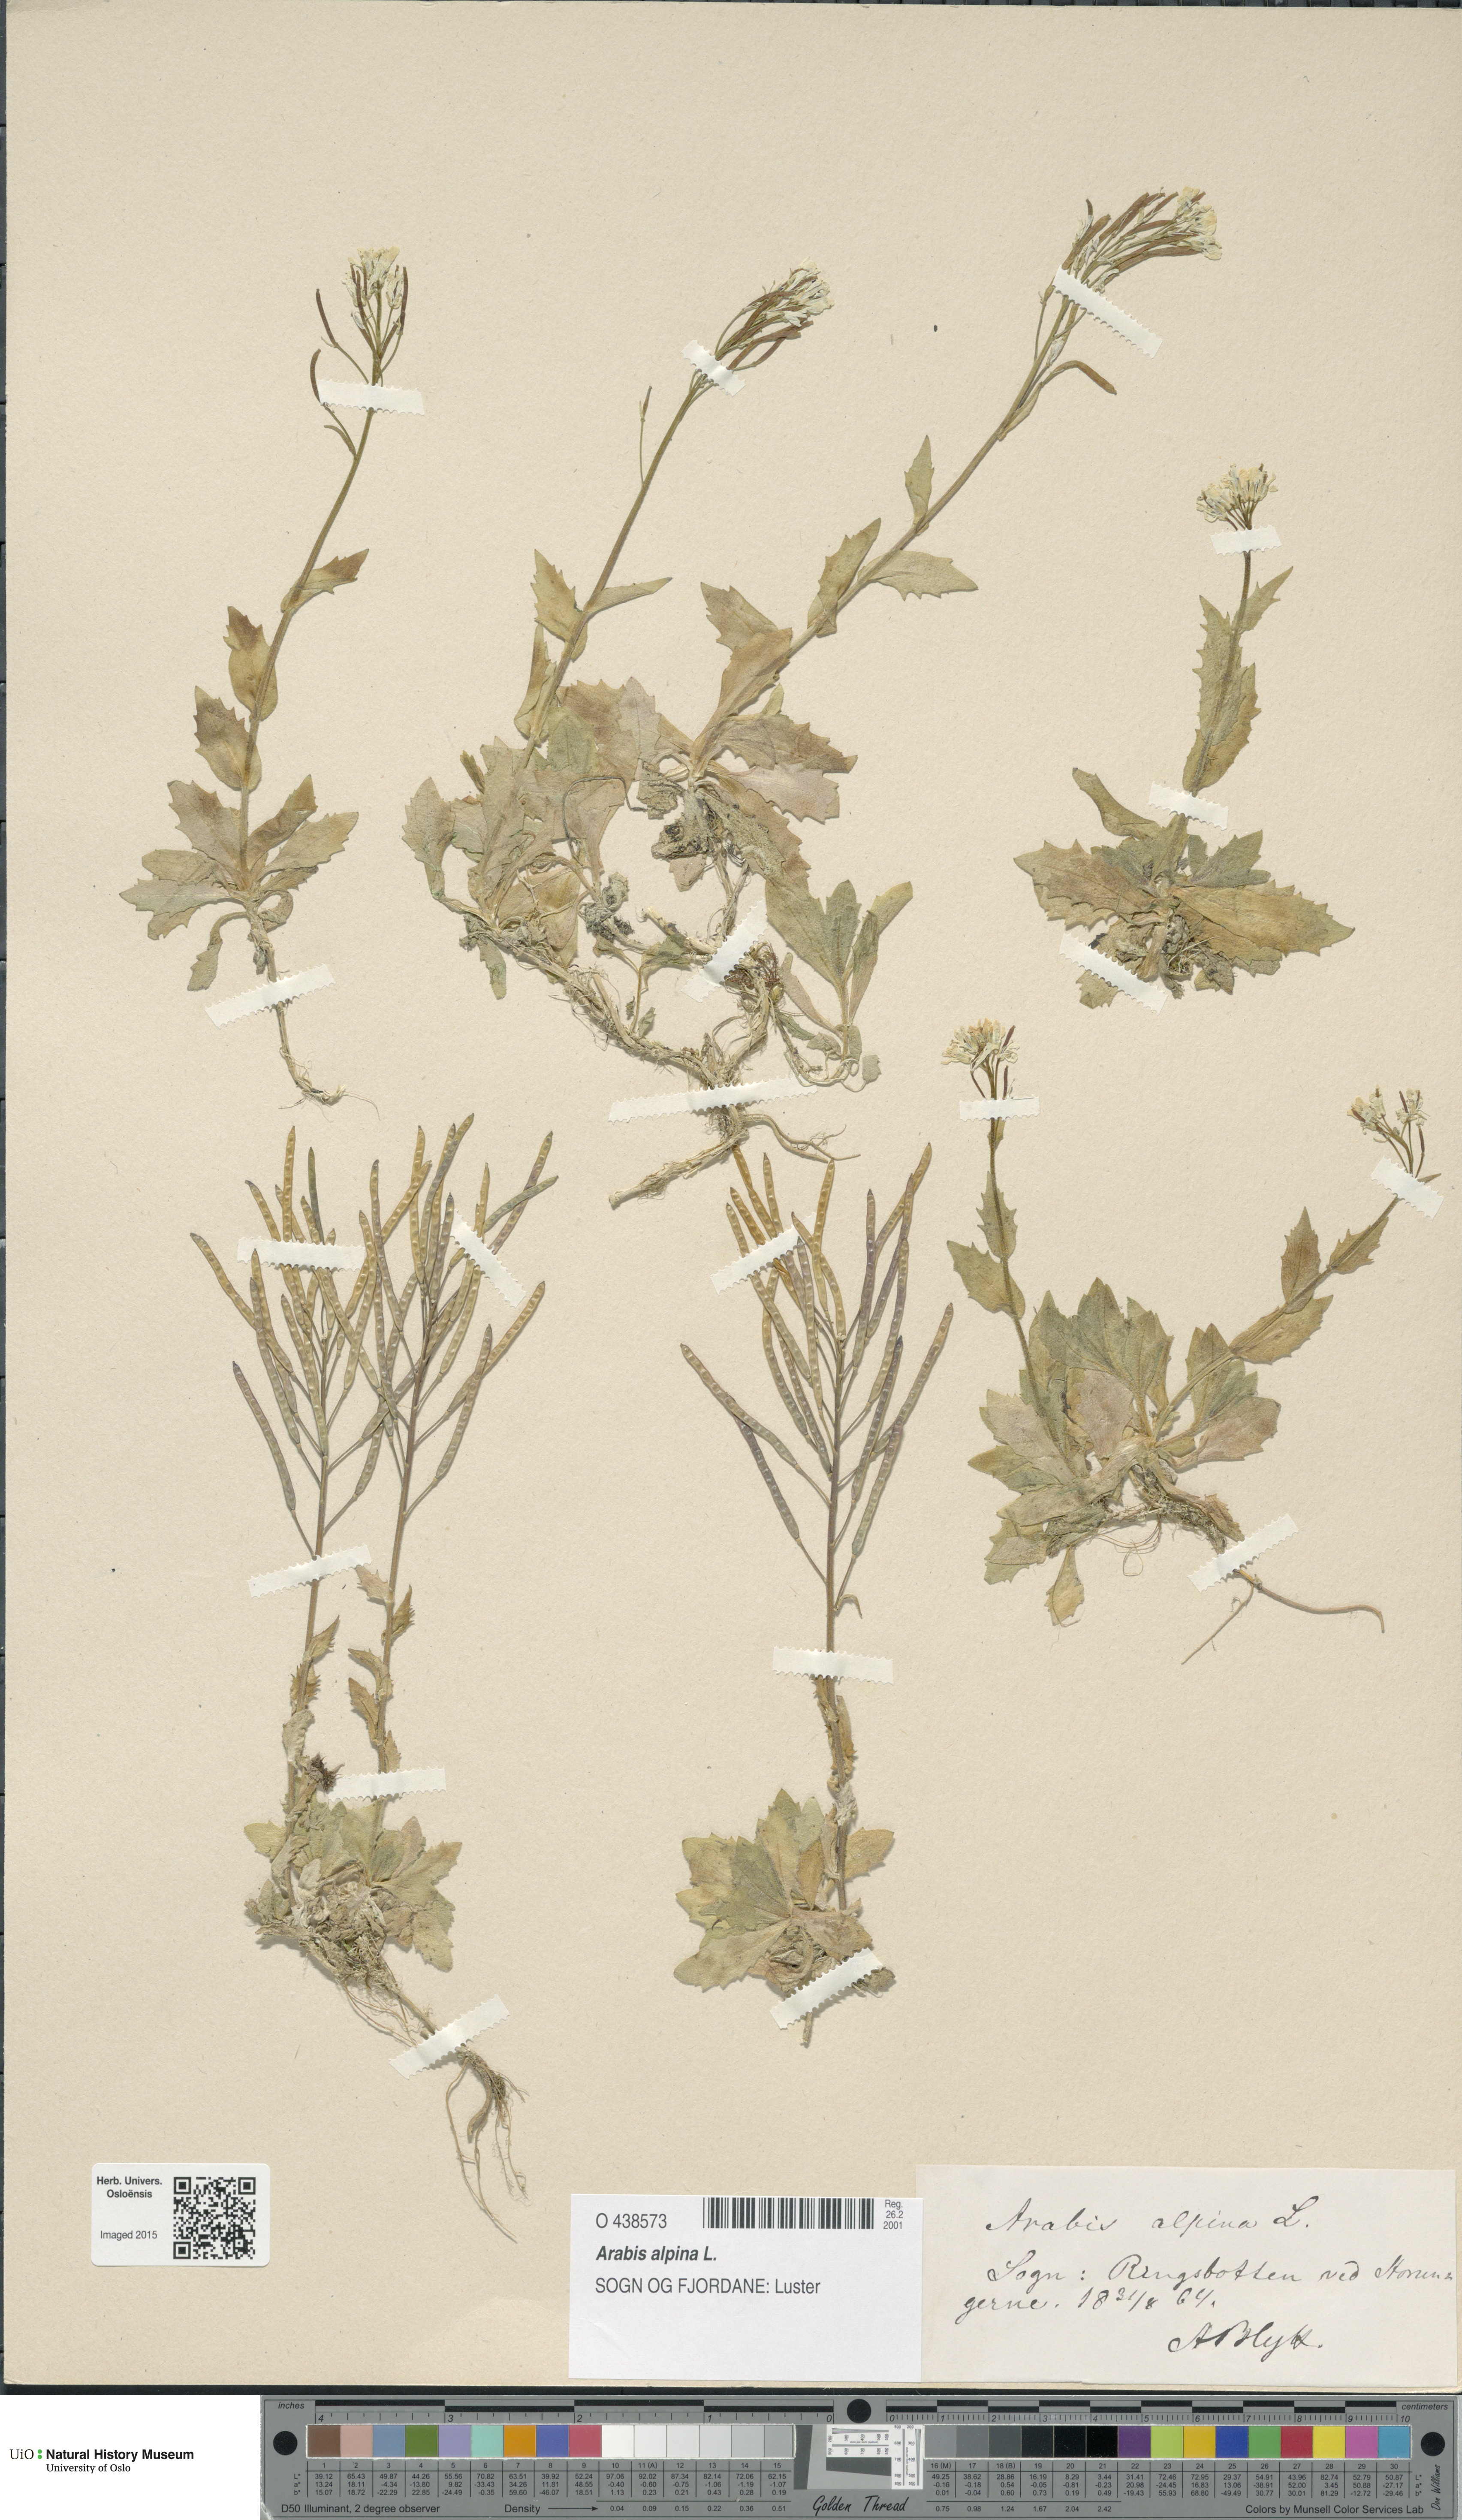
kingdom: Plantae
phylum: Tracheophyta
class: Magnoliopsida
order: Brassicales
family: Brassicaceae
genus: Arabis
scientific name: Arabis alpina
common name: Alpine rock-cress
